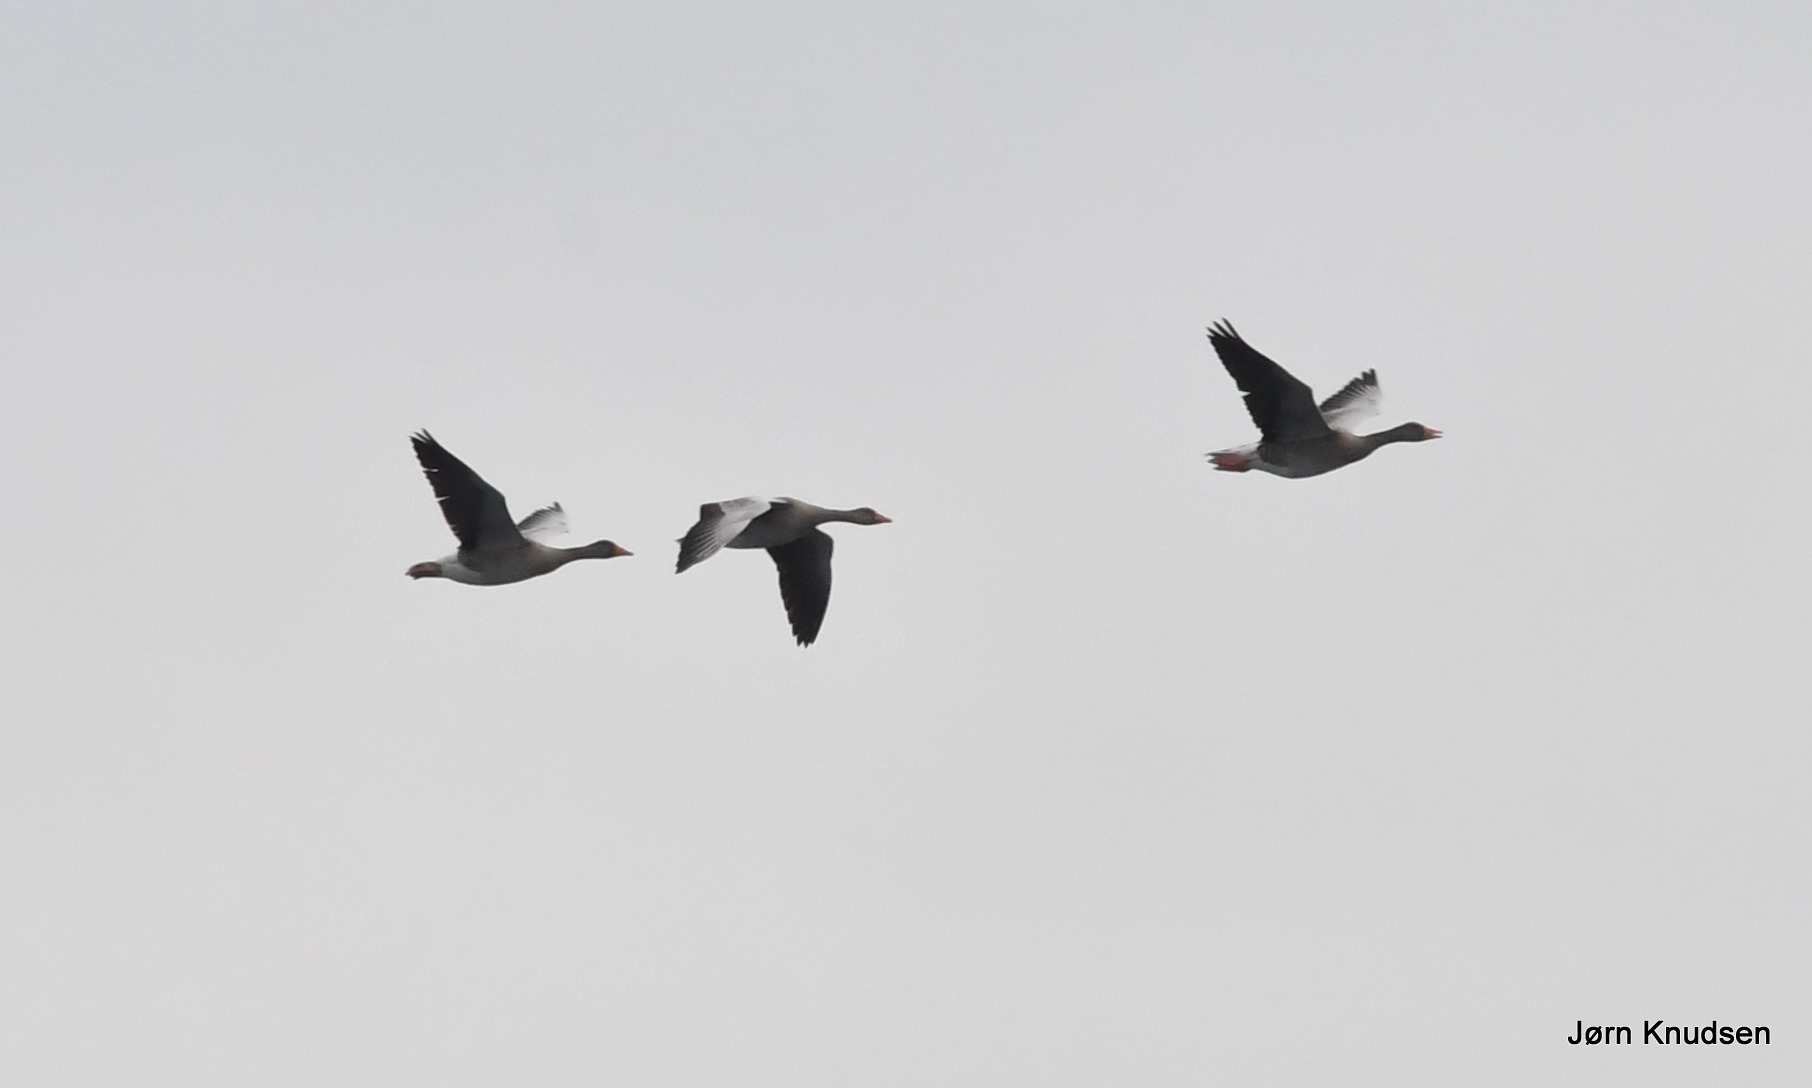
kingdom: Animalia
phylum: Chordata
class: Aves
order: Anseriformes
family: Anatidae
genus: Anser
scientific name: Anser anser
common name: Grågås
